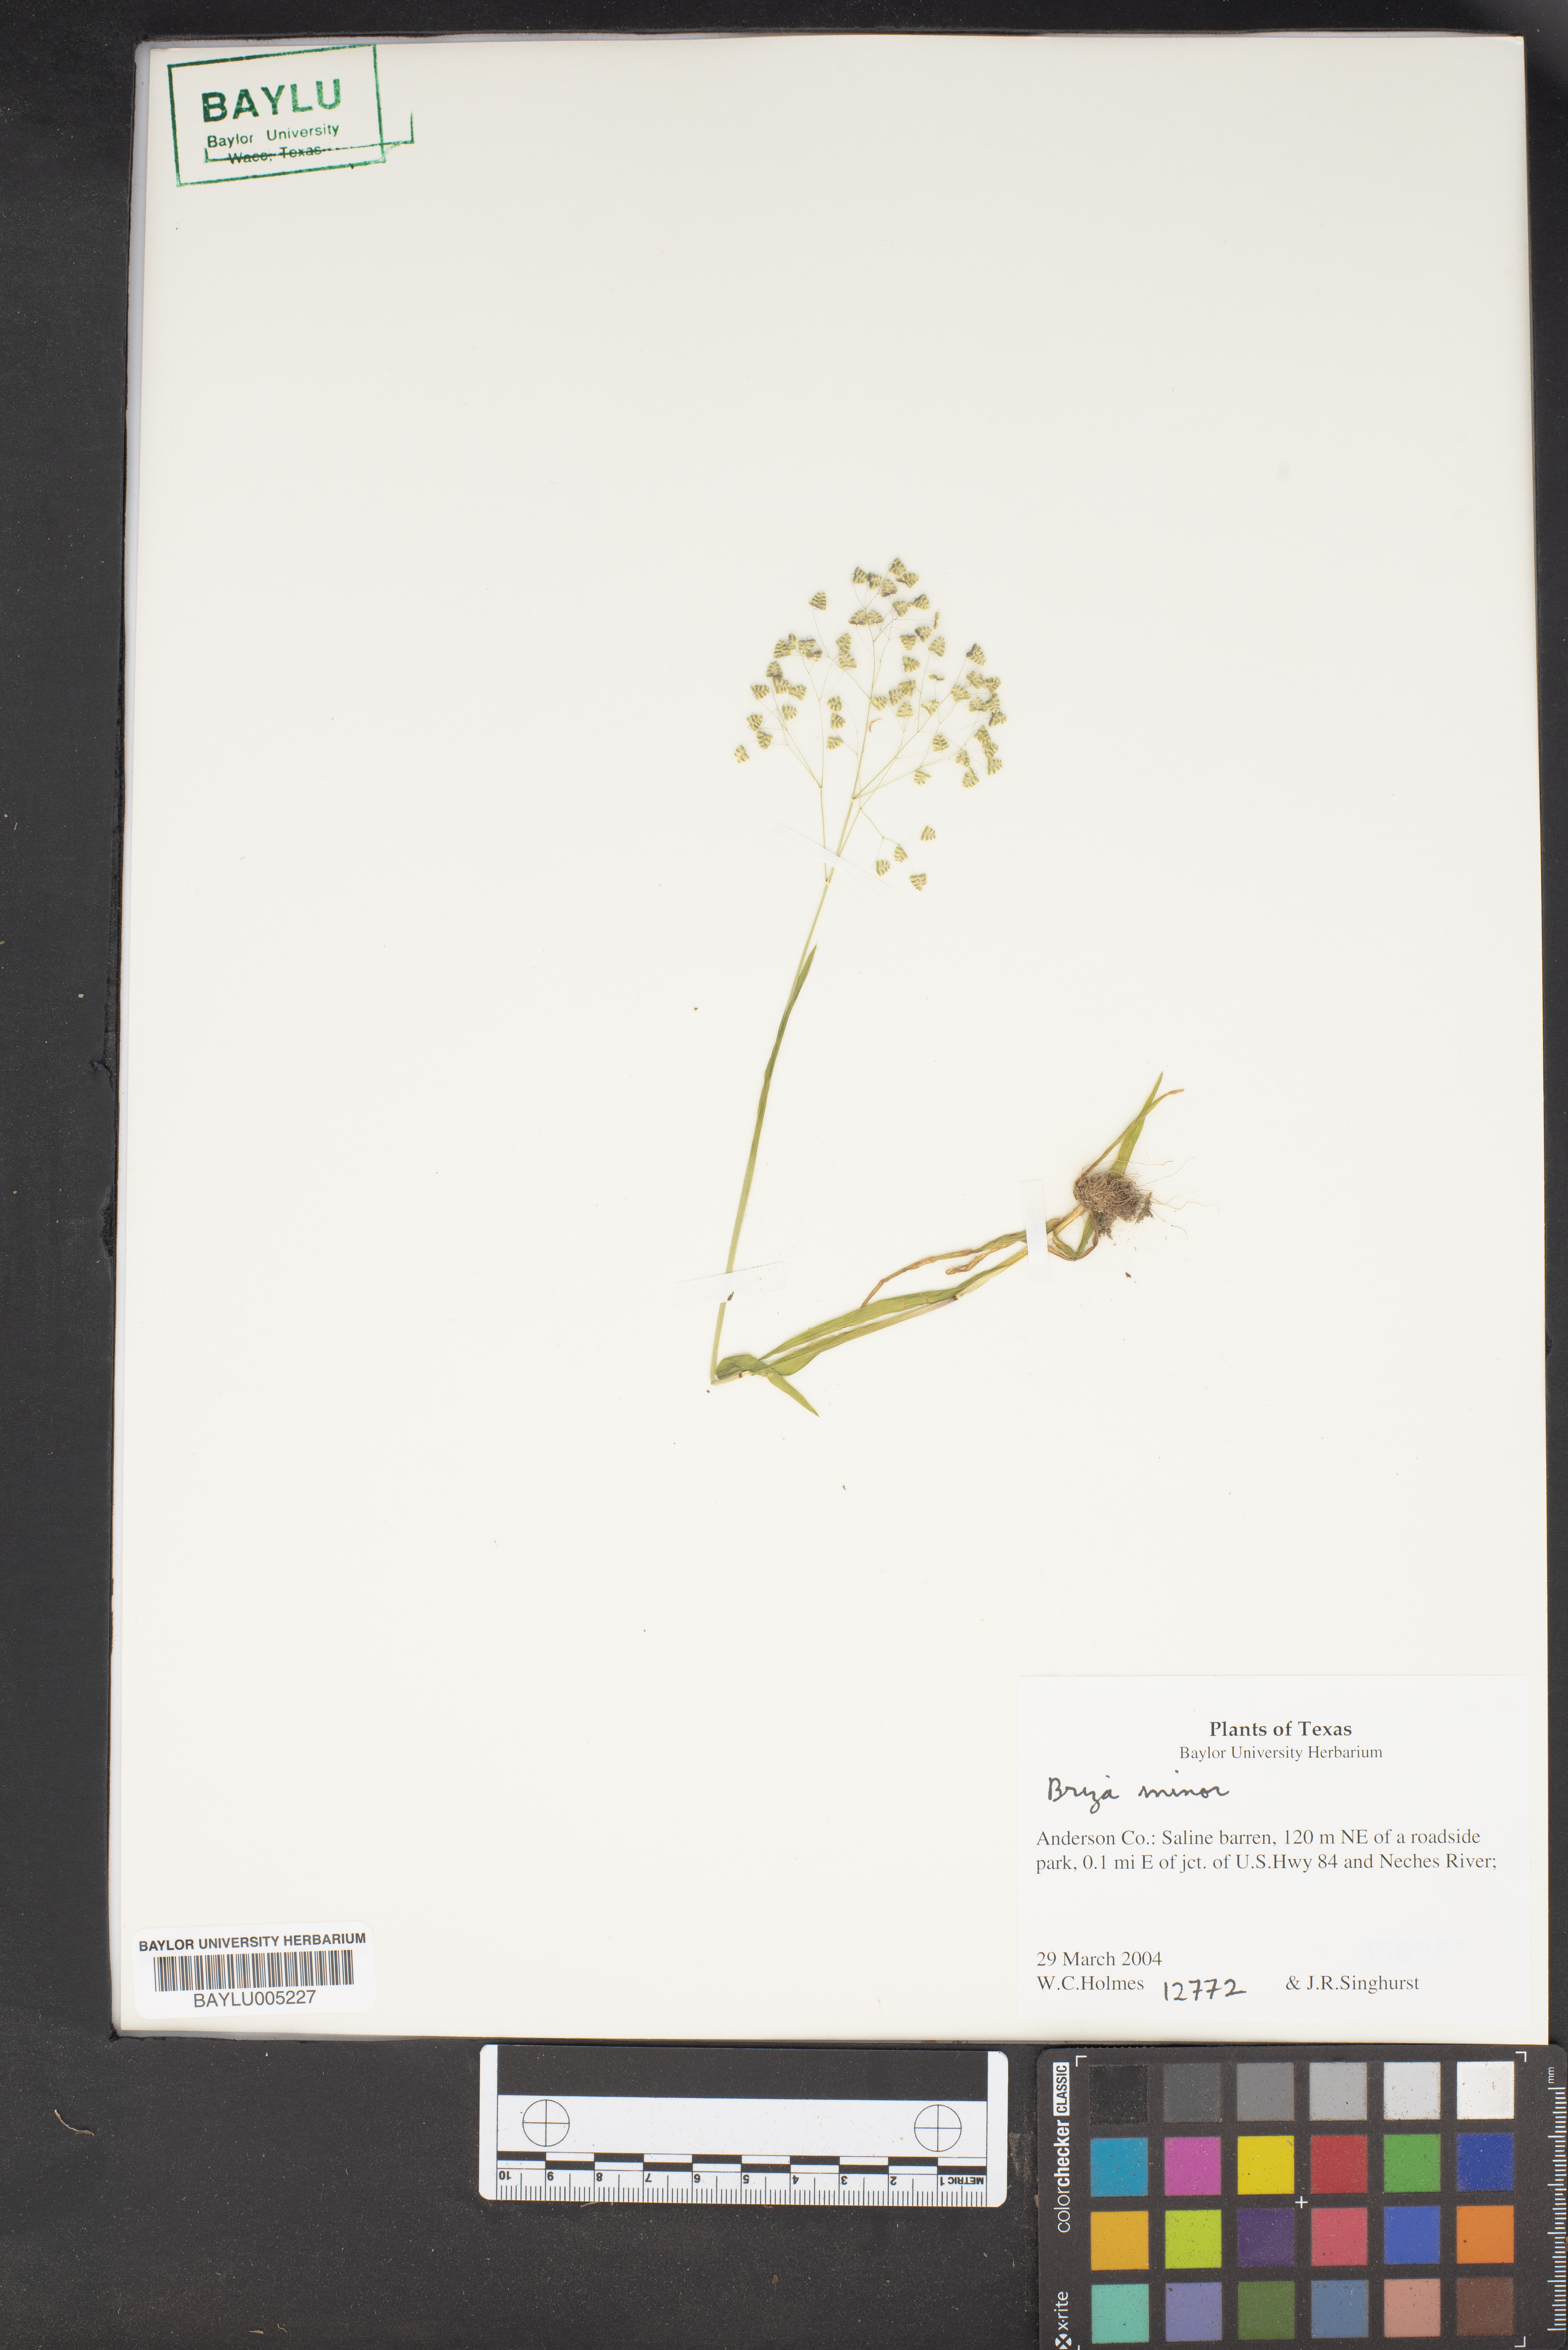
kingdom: Plantae
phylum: Tracheophyta
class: Liliopsida
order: Poales
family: Poaceae
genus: Briza
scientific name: Briza minor
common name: Lesser quaking-grass
